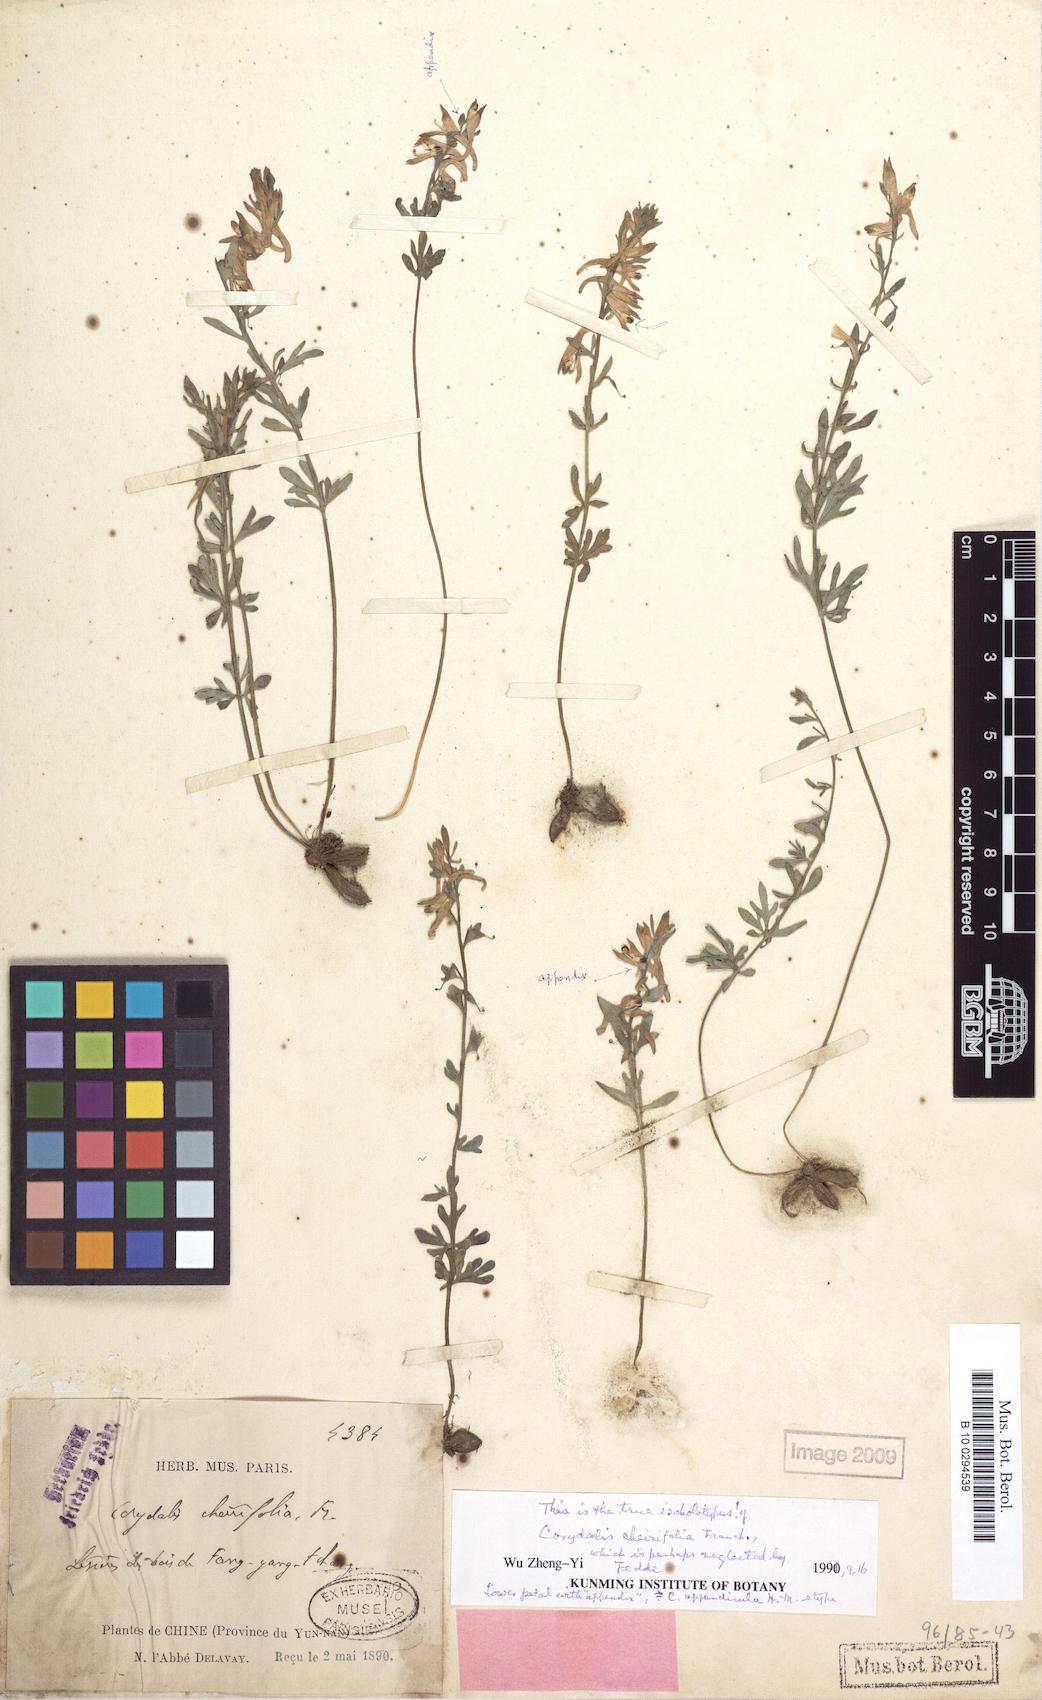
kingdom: Plantae
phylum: Tracheophyta
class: Magnoliopsida
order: Ranunculales
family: Papaveraceae
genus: Corydalis
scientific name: Corydalis cheirifolia
